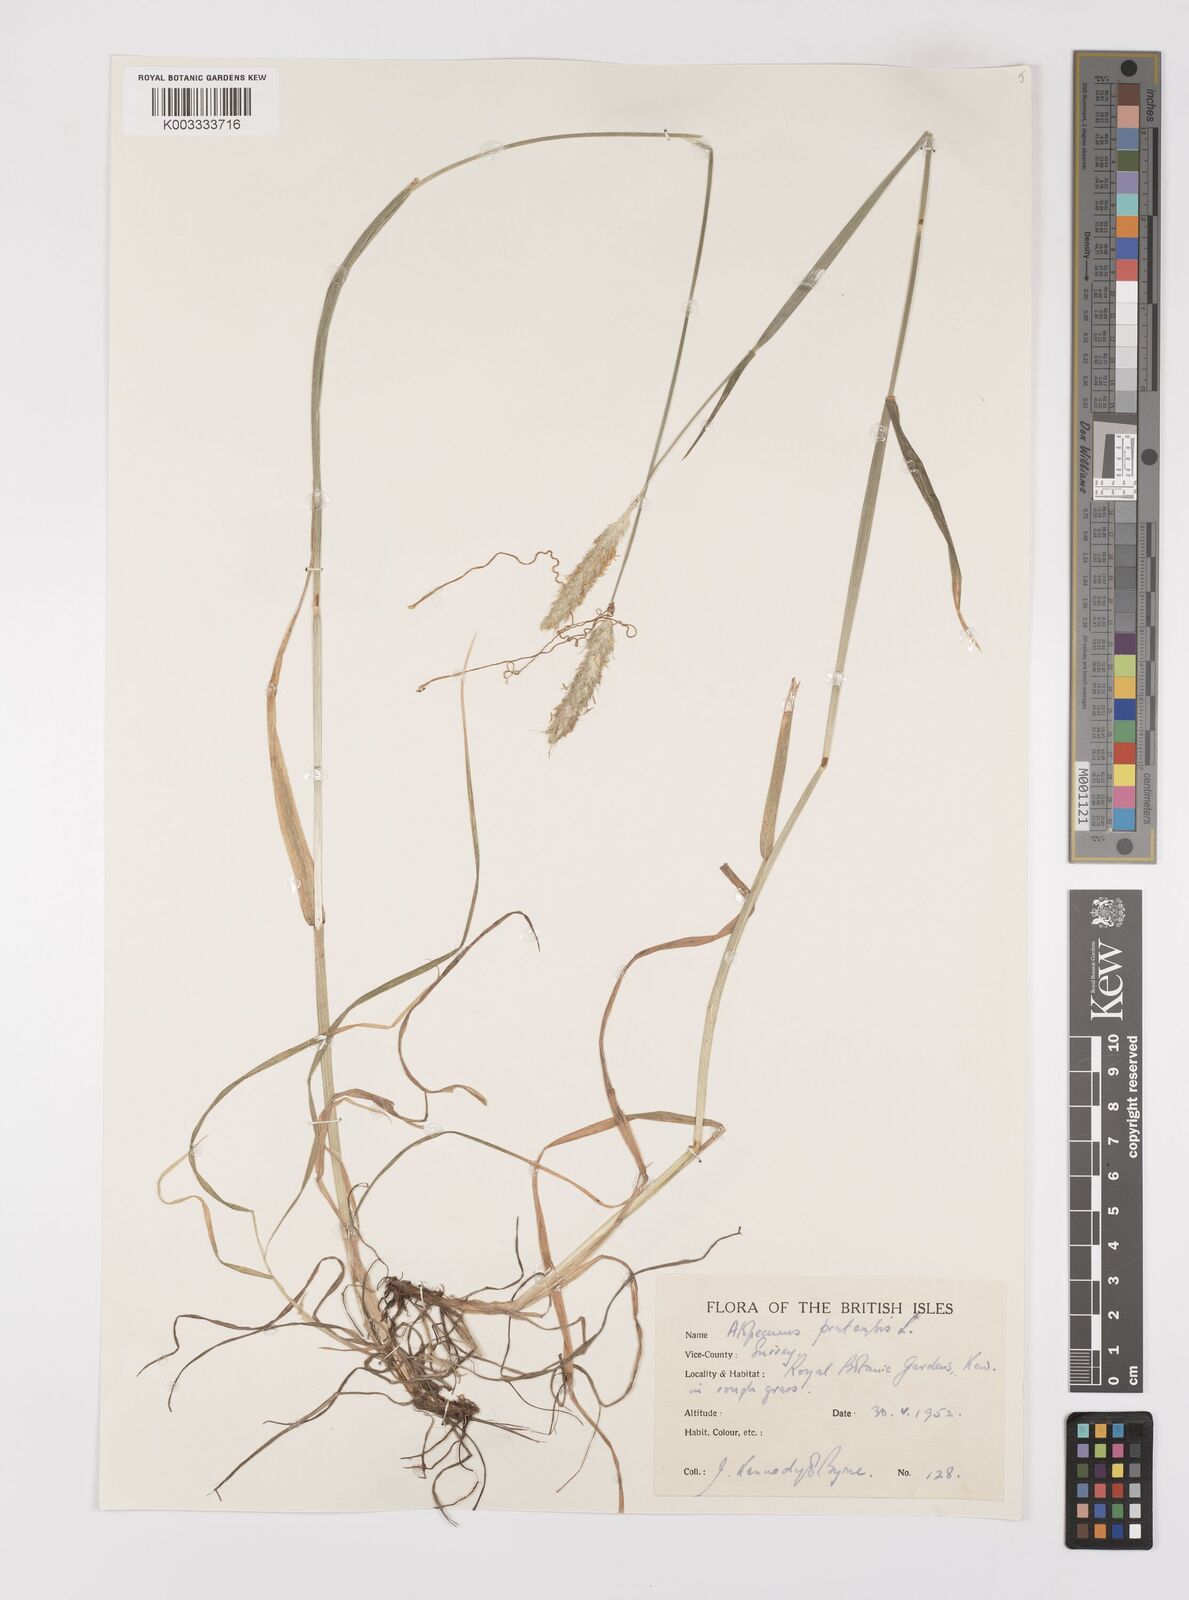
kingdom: Plantae
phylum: Tracheophyta
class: Liliopsida
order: Poales
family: Poaceae
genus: Alopecurus
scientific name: Alopecurus pratensis
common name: Meadow foxtail
